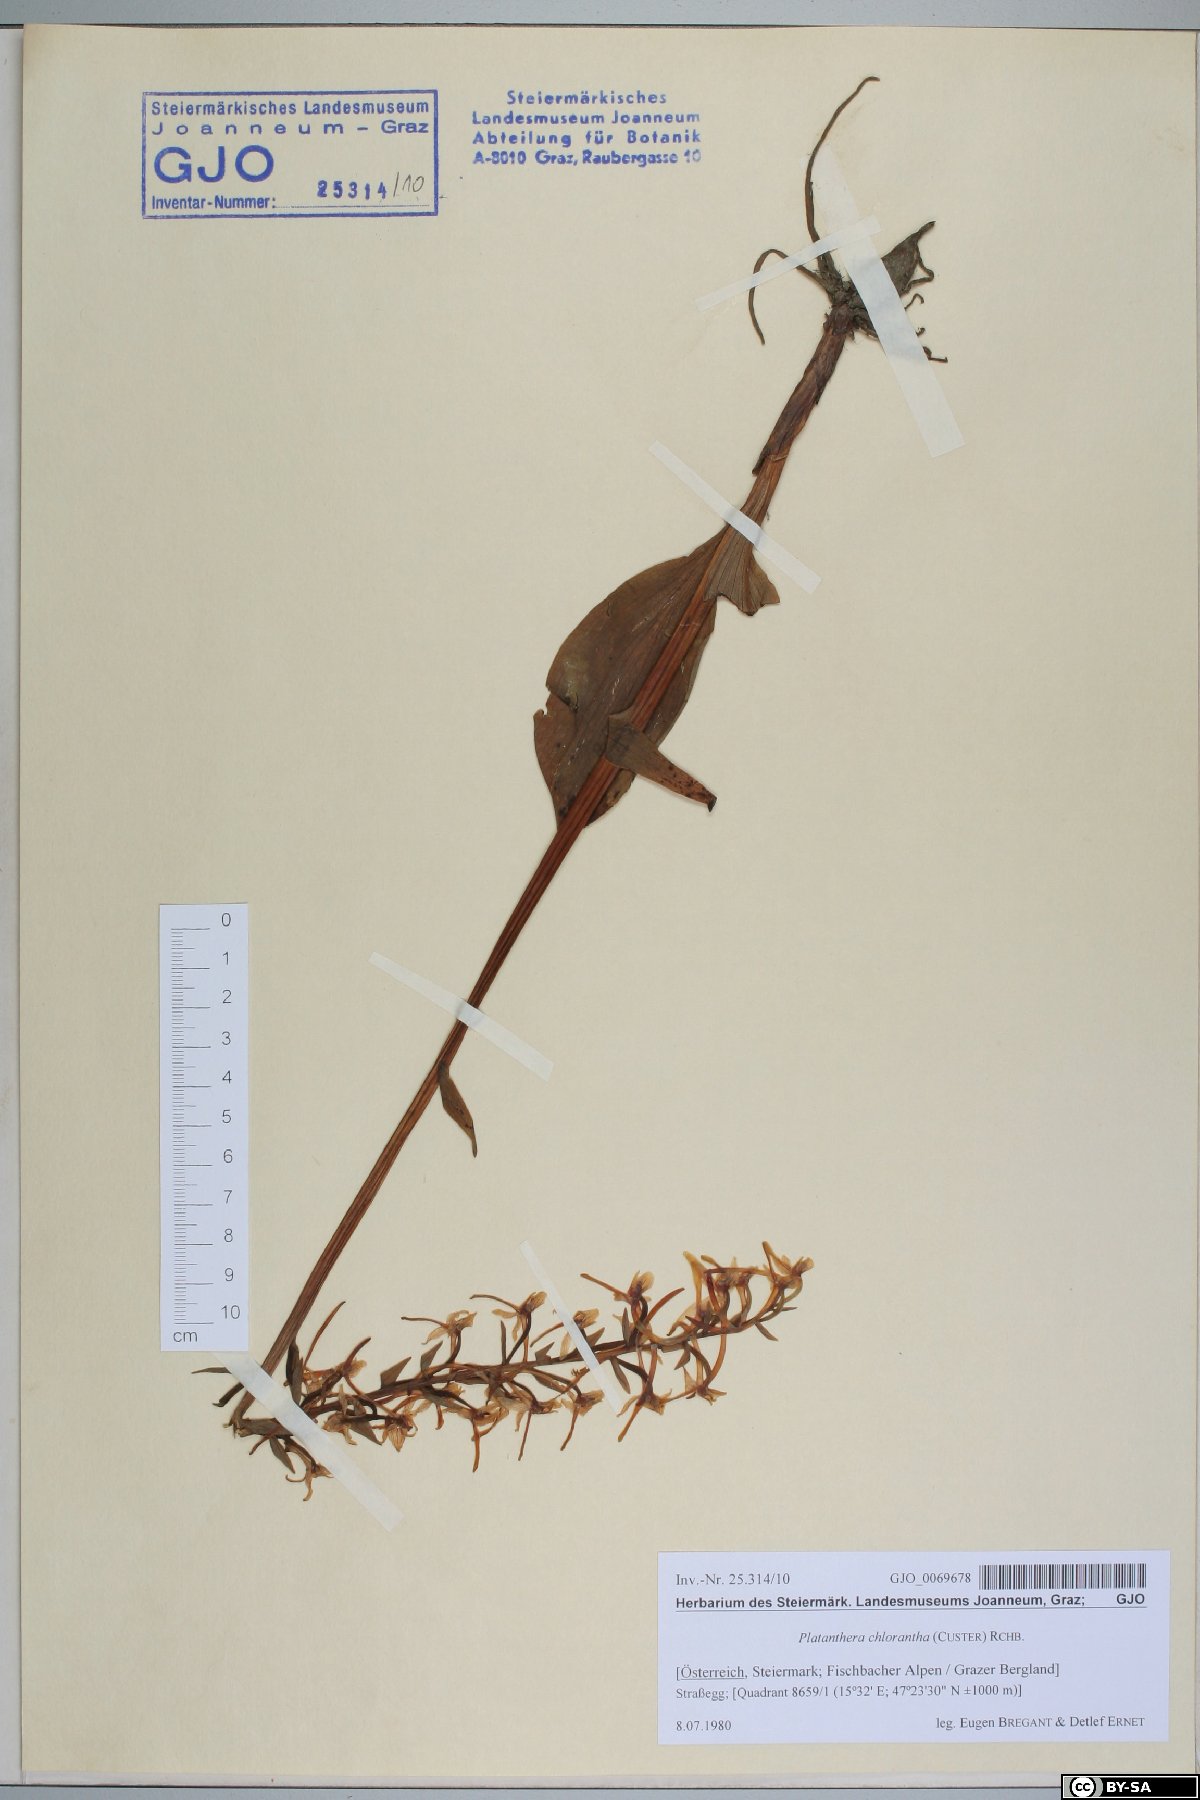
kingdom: Plantae
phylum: Tracheophyta
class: Liliopsida
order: Asparagales
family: Orchidaceae
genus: Platanthera
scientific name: Platanthera chlorantha
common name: Greater butterfly-orchid
